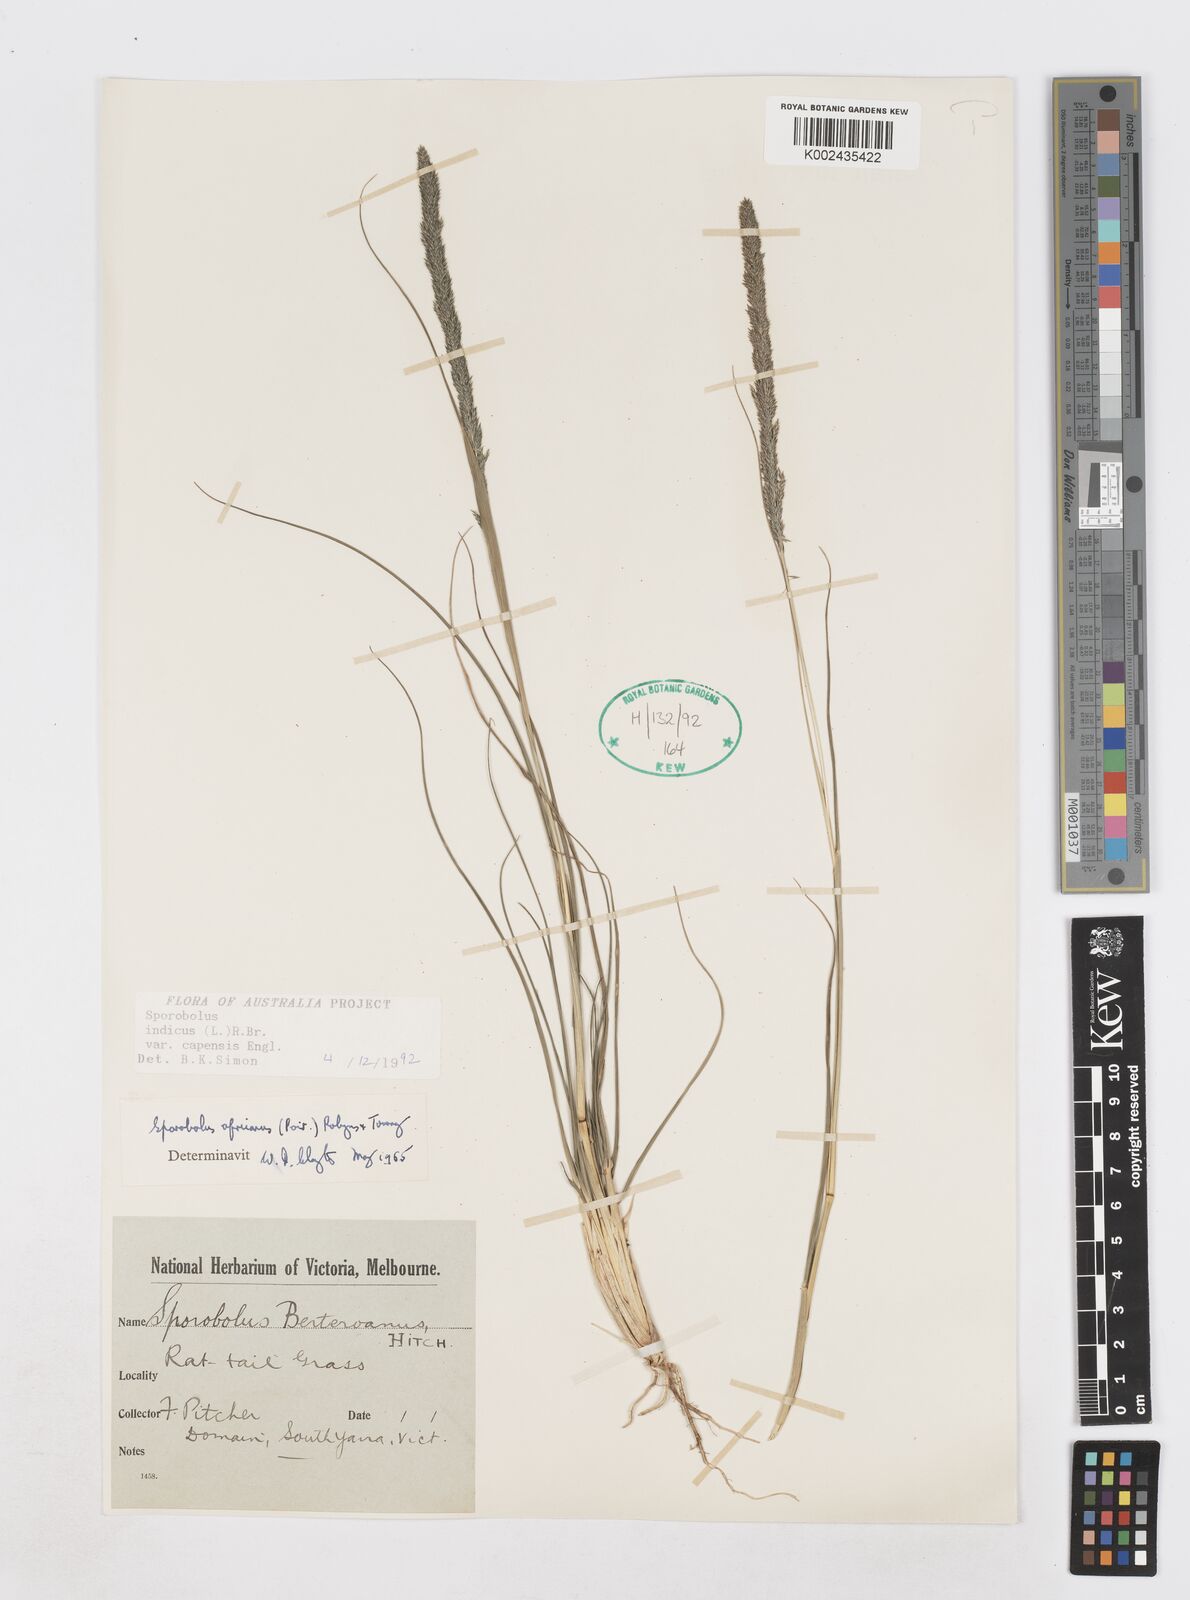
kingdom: Plantae
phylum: Tracheophyta
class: Liliopsida
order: Poales
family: Poaceae
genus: Sporobolus
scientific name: Sporobolus africanus
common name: African dropseed
